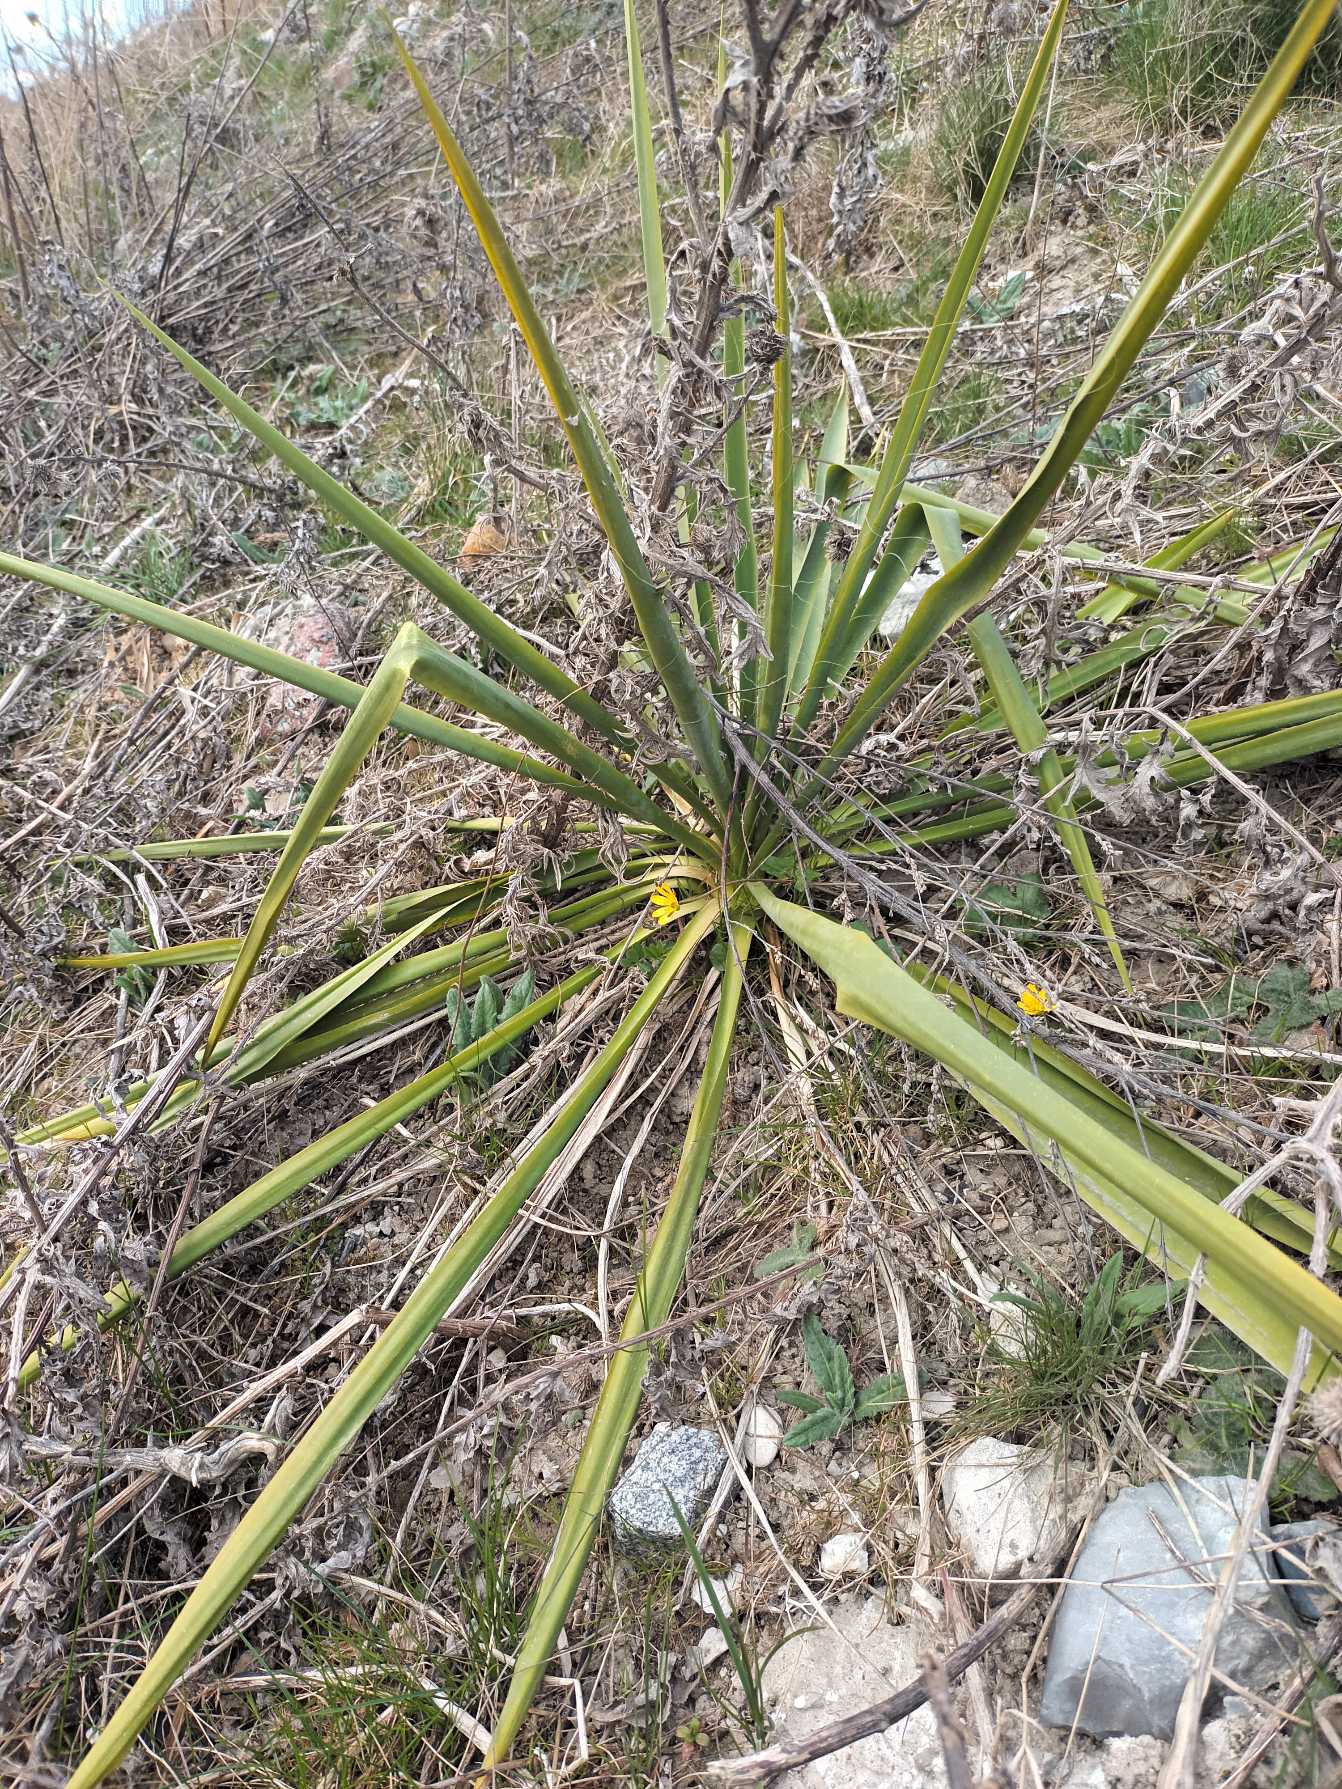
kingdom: Plantae
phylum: Tracheophyta
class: Liliopsida
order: Asparagales
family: Asparagaceae
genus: Yucca
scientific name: Yucca filamentosa
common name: Trævlet palmelilje
